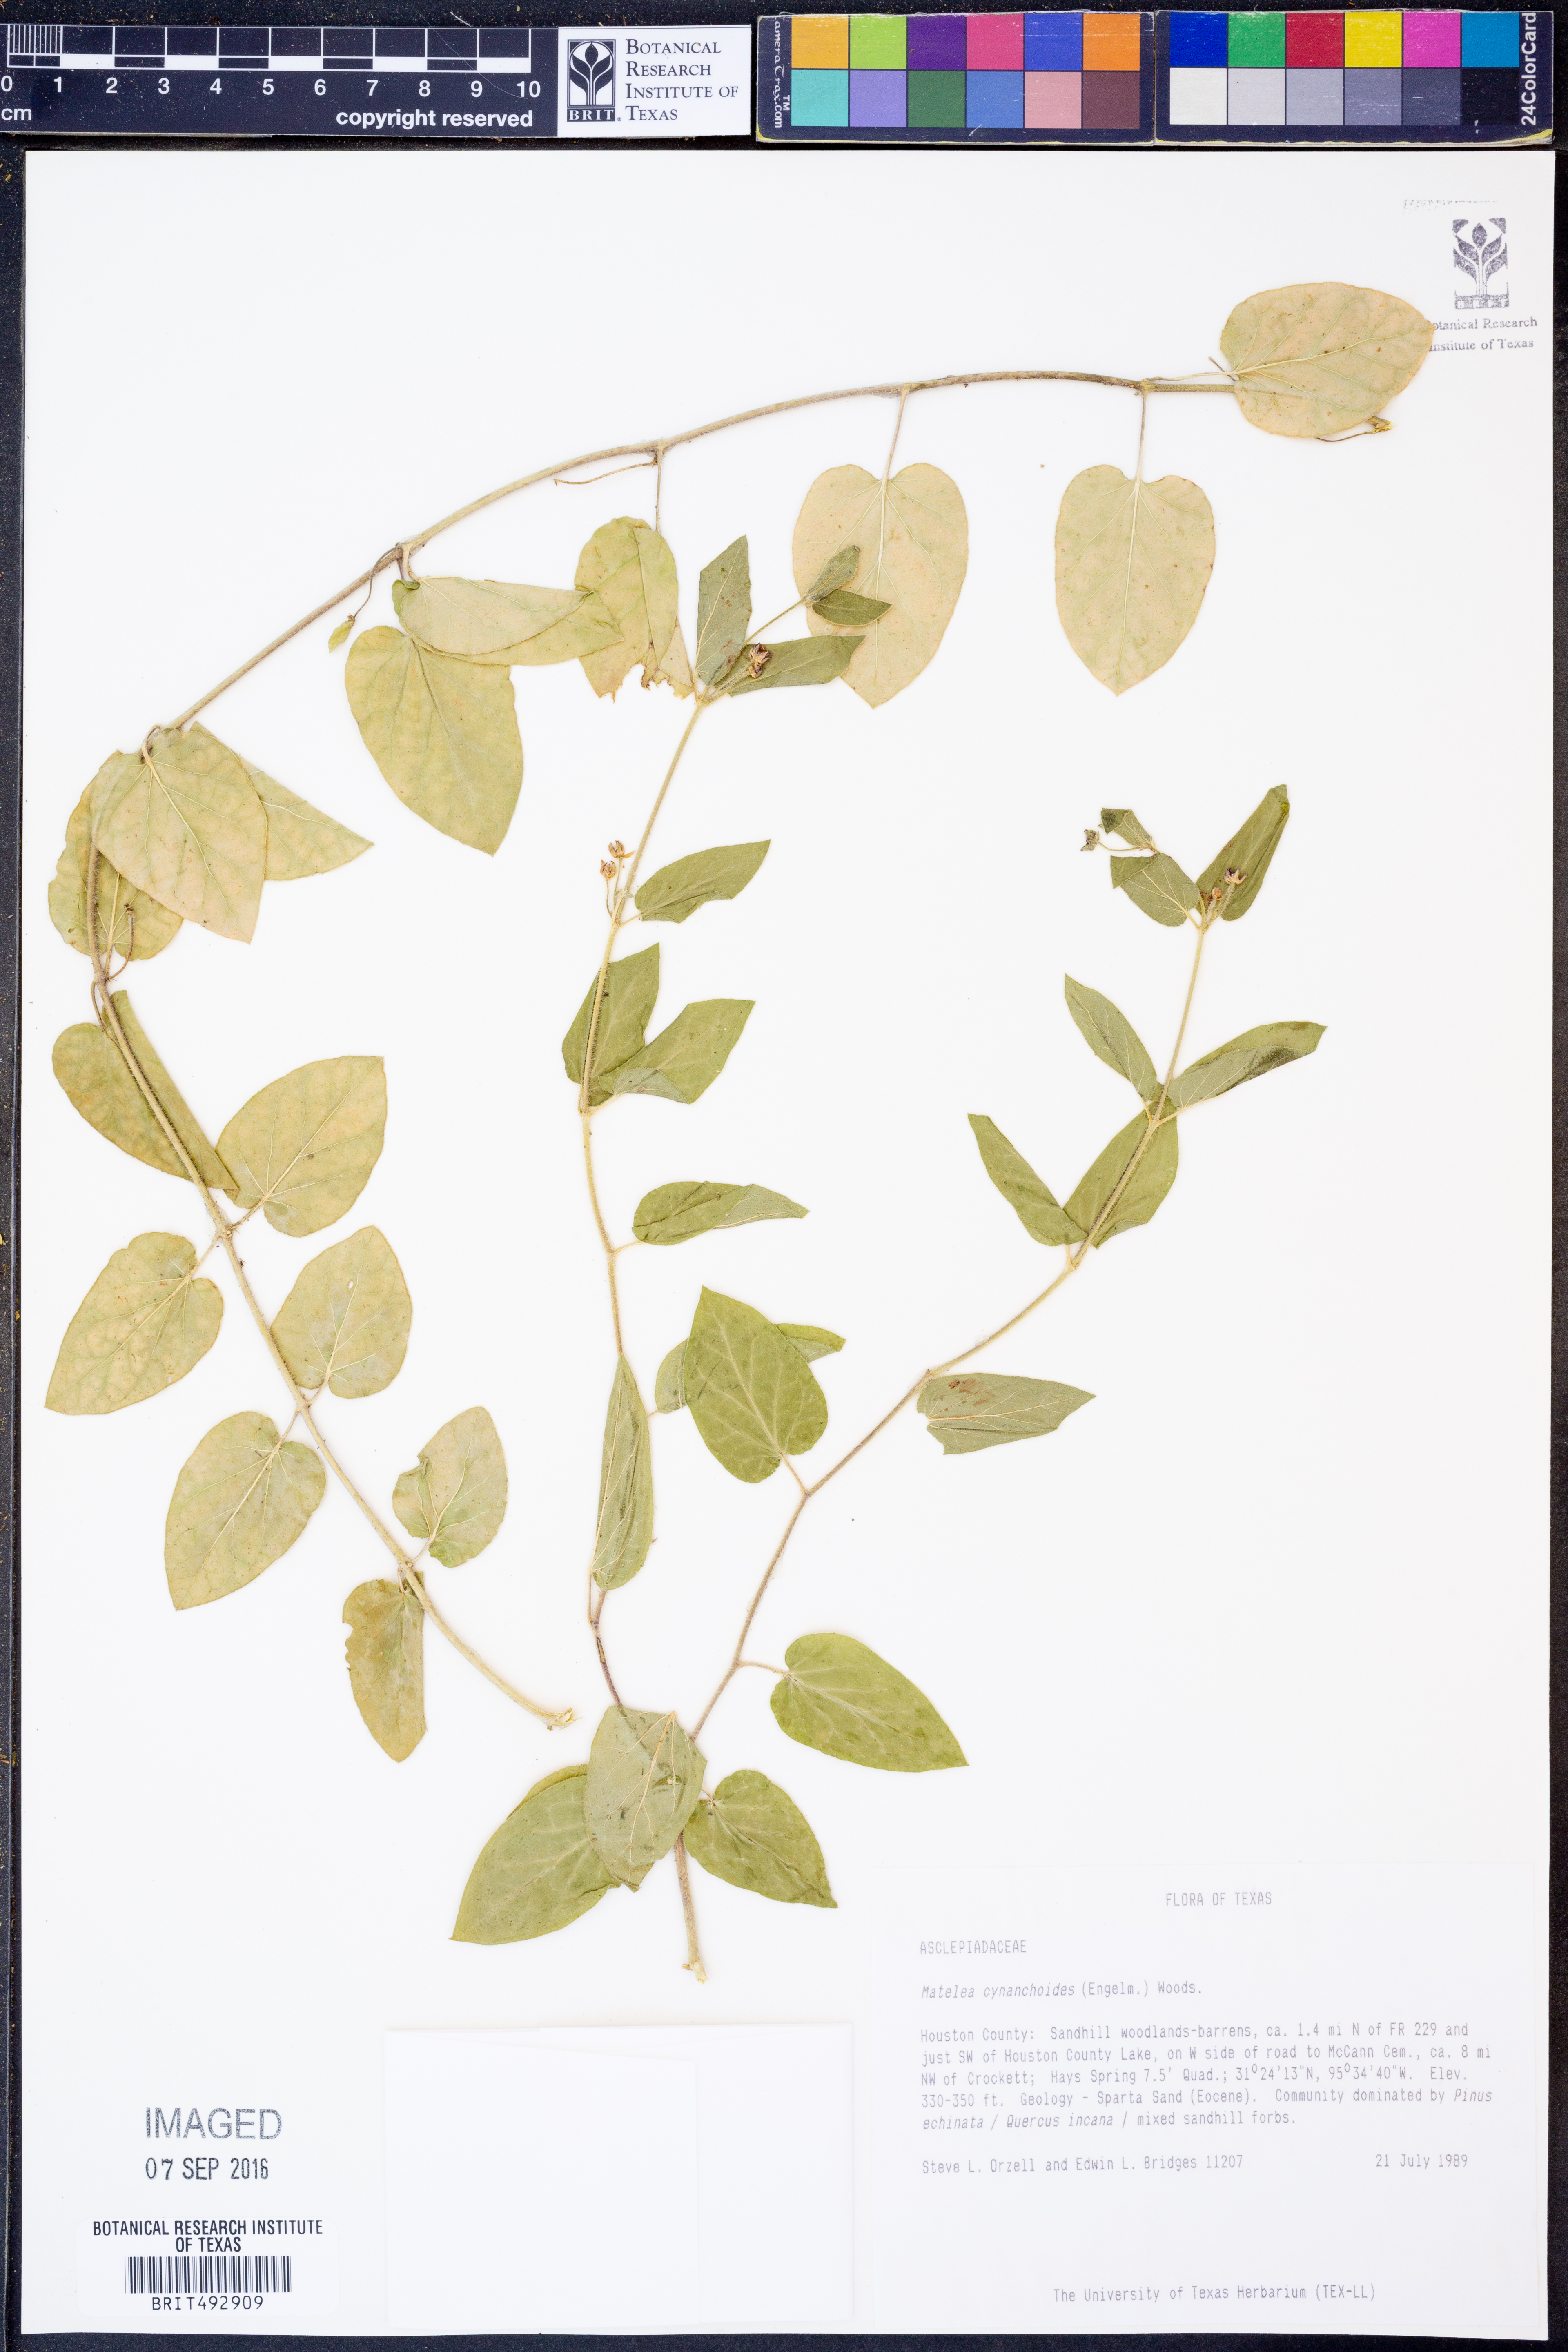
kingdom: Plantae
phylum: Tracheophyta
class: Magnoliopsida
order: Gentianales
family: Apocynaceae
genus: Matelea
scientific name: Matelea cynanchoides
